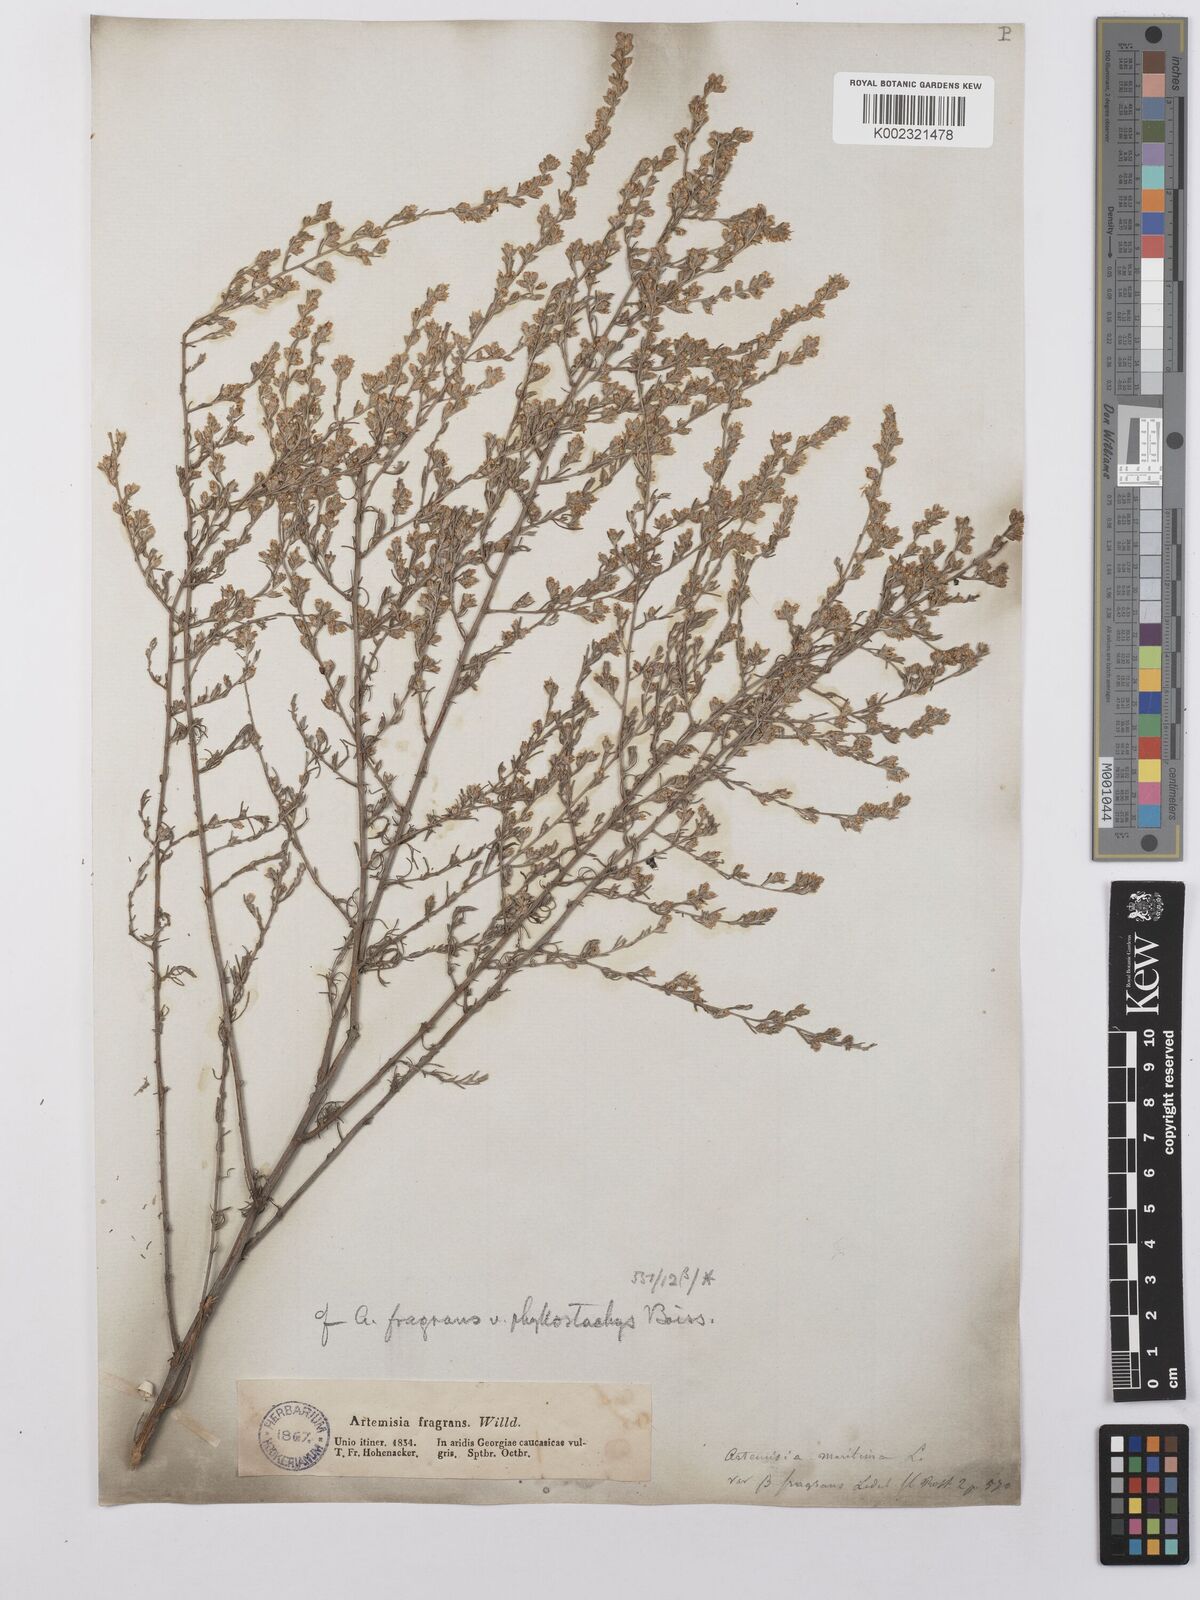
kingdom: Plantae
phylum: Tracheophyta
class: Magnoliopsida
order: Asterales
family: Asteraceae
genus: Artemisia
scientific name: Artemisia fragrans
